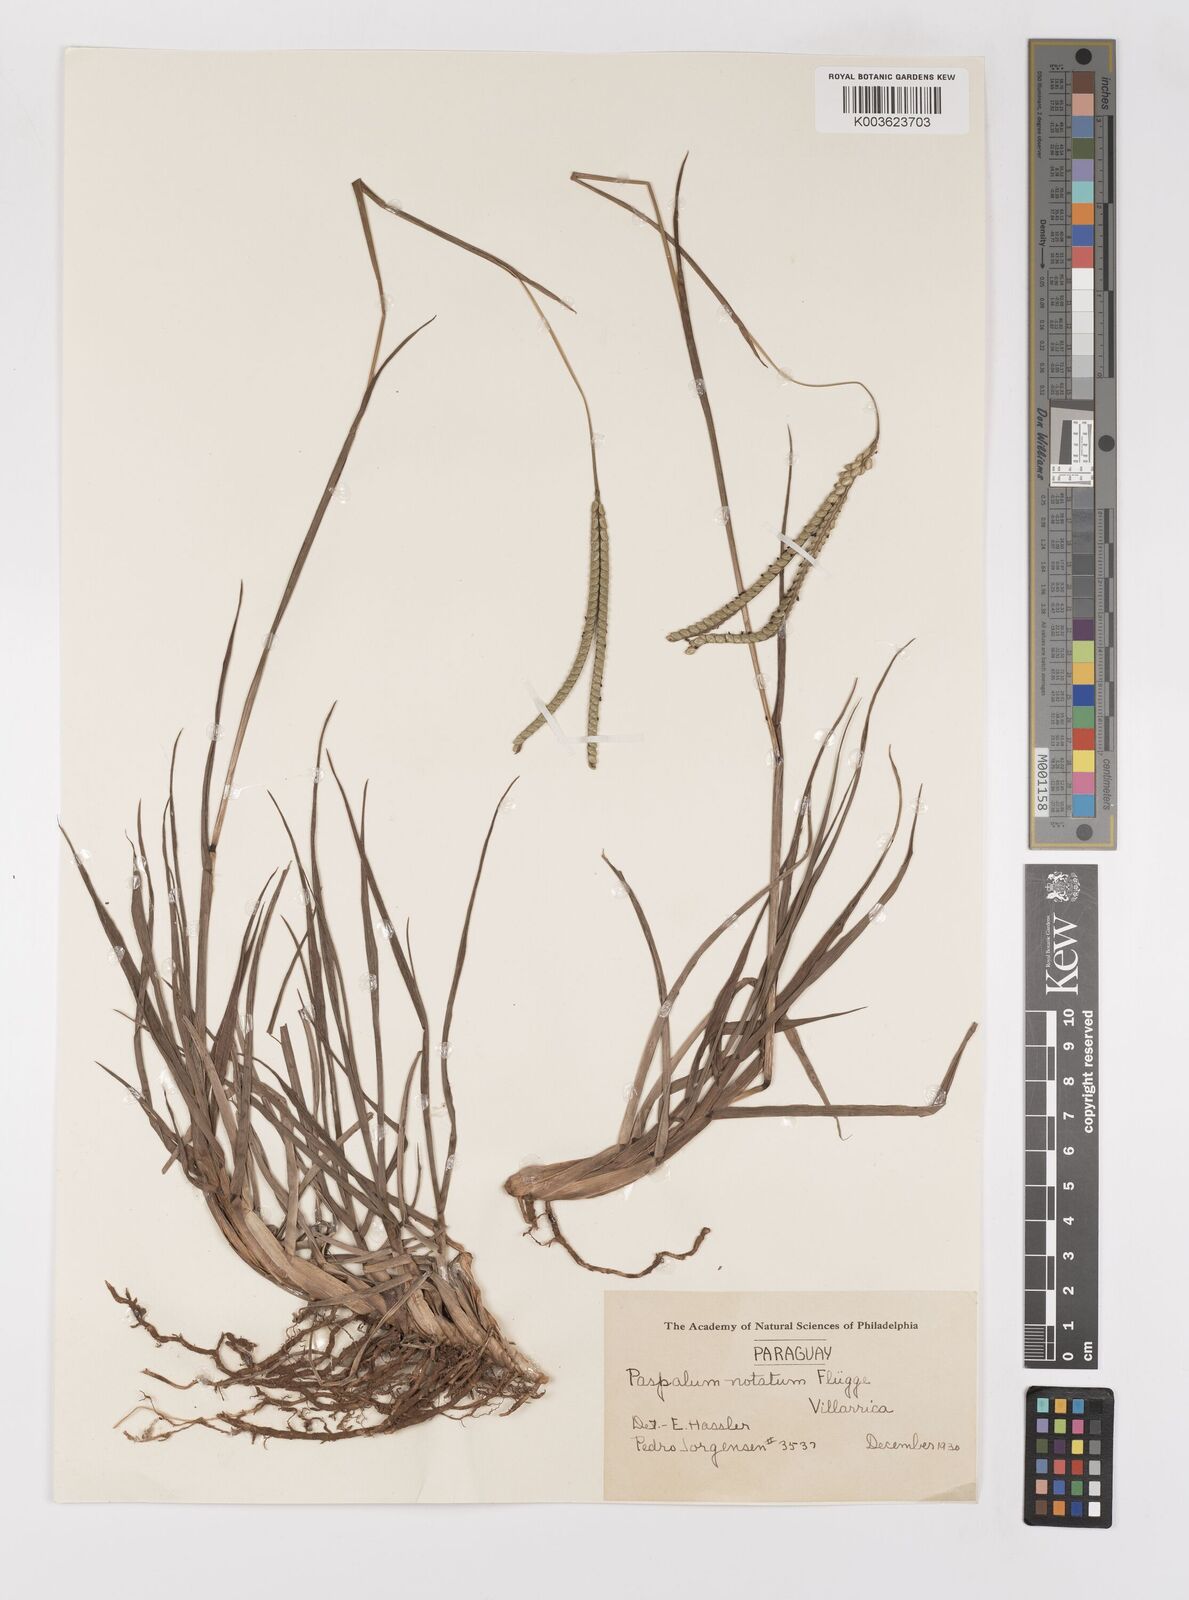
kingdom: Plantae
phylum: Tracheophyta
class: Liliopsida
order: Poales
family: Poaceae
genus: Paspalum
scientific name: Paspalum notatum
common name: Bahiagrass
